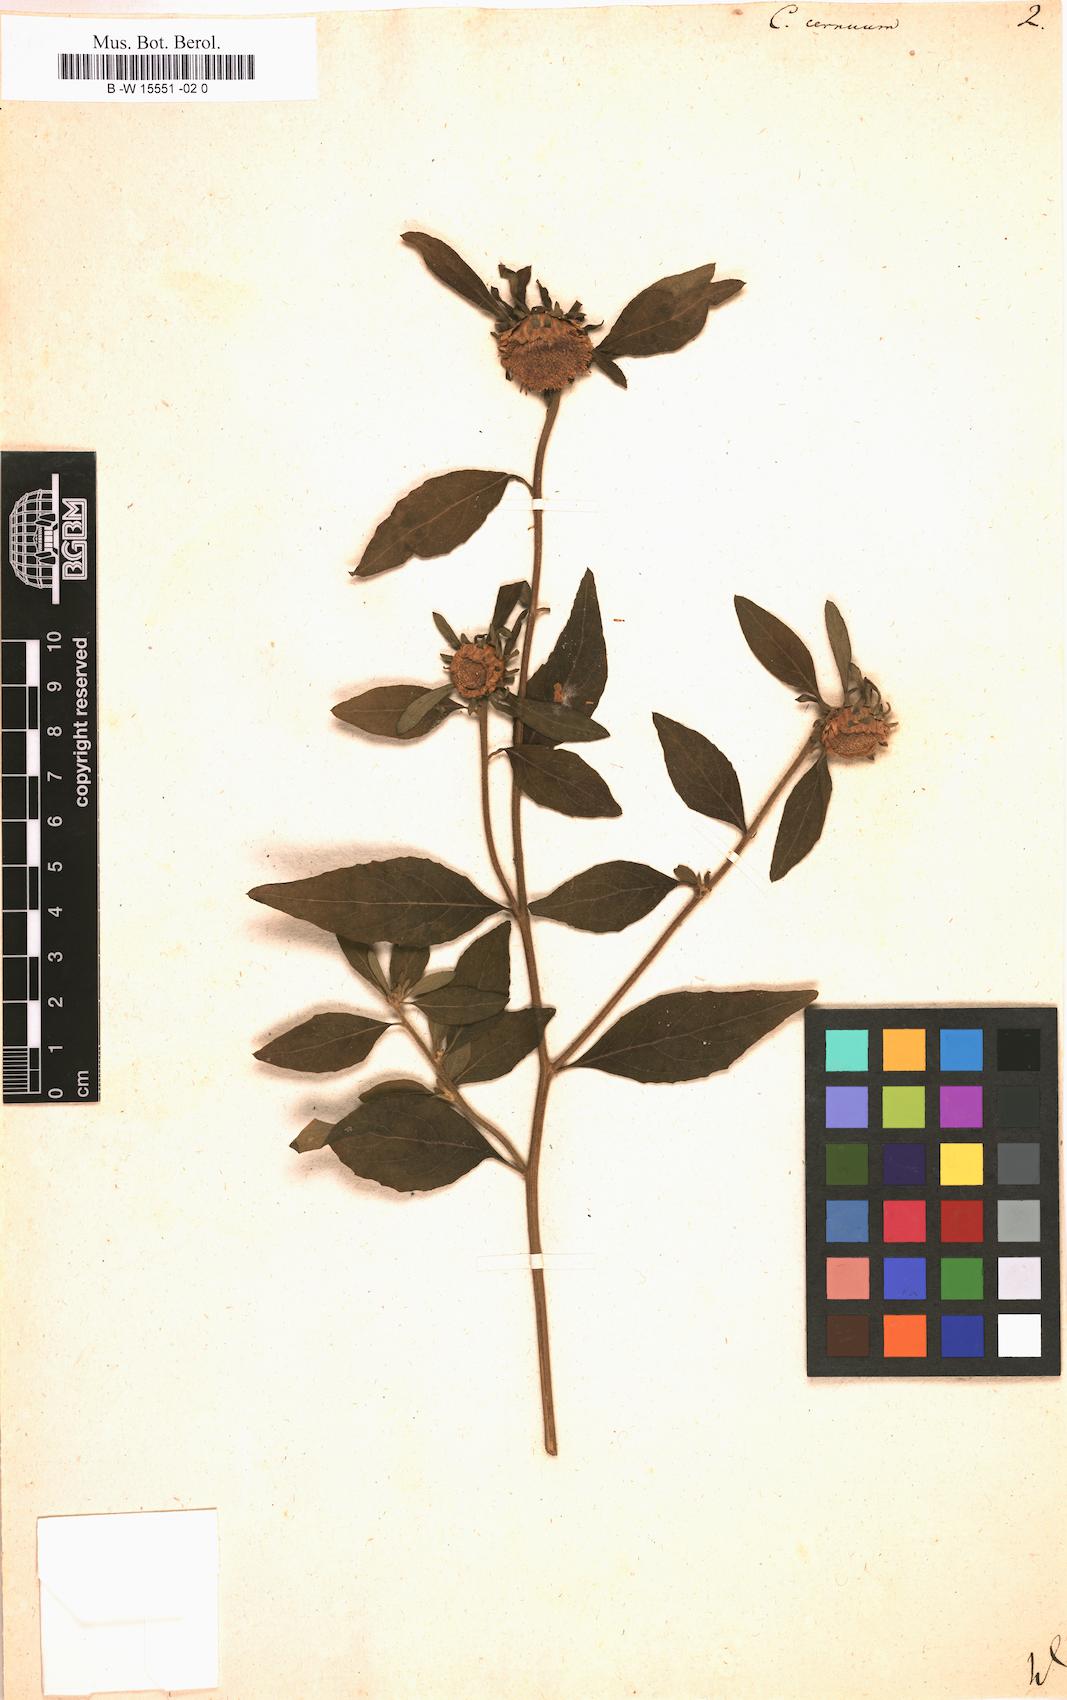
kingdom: Plantae
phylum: Tracheophyta
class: Magnoliopsida
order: Asterales
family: Asteraceae
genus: Carpesium
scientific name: Carpesium cernuum
